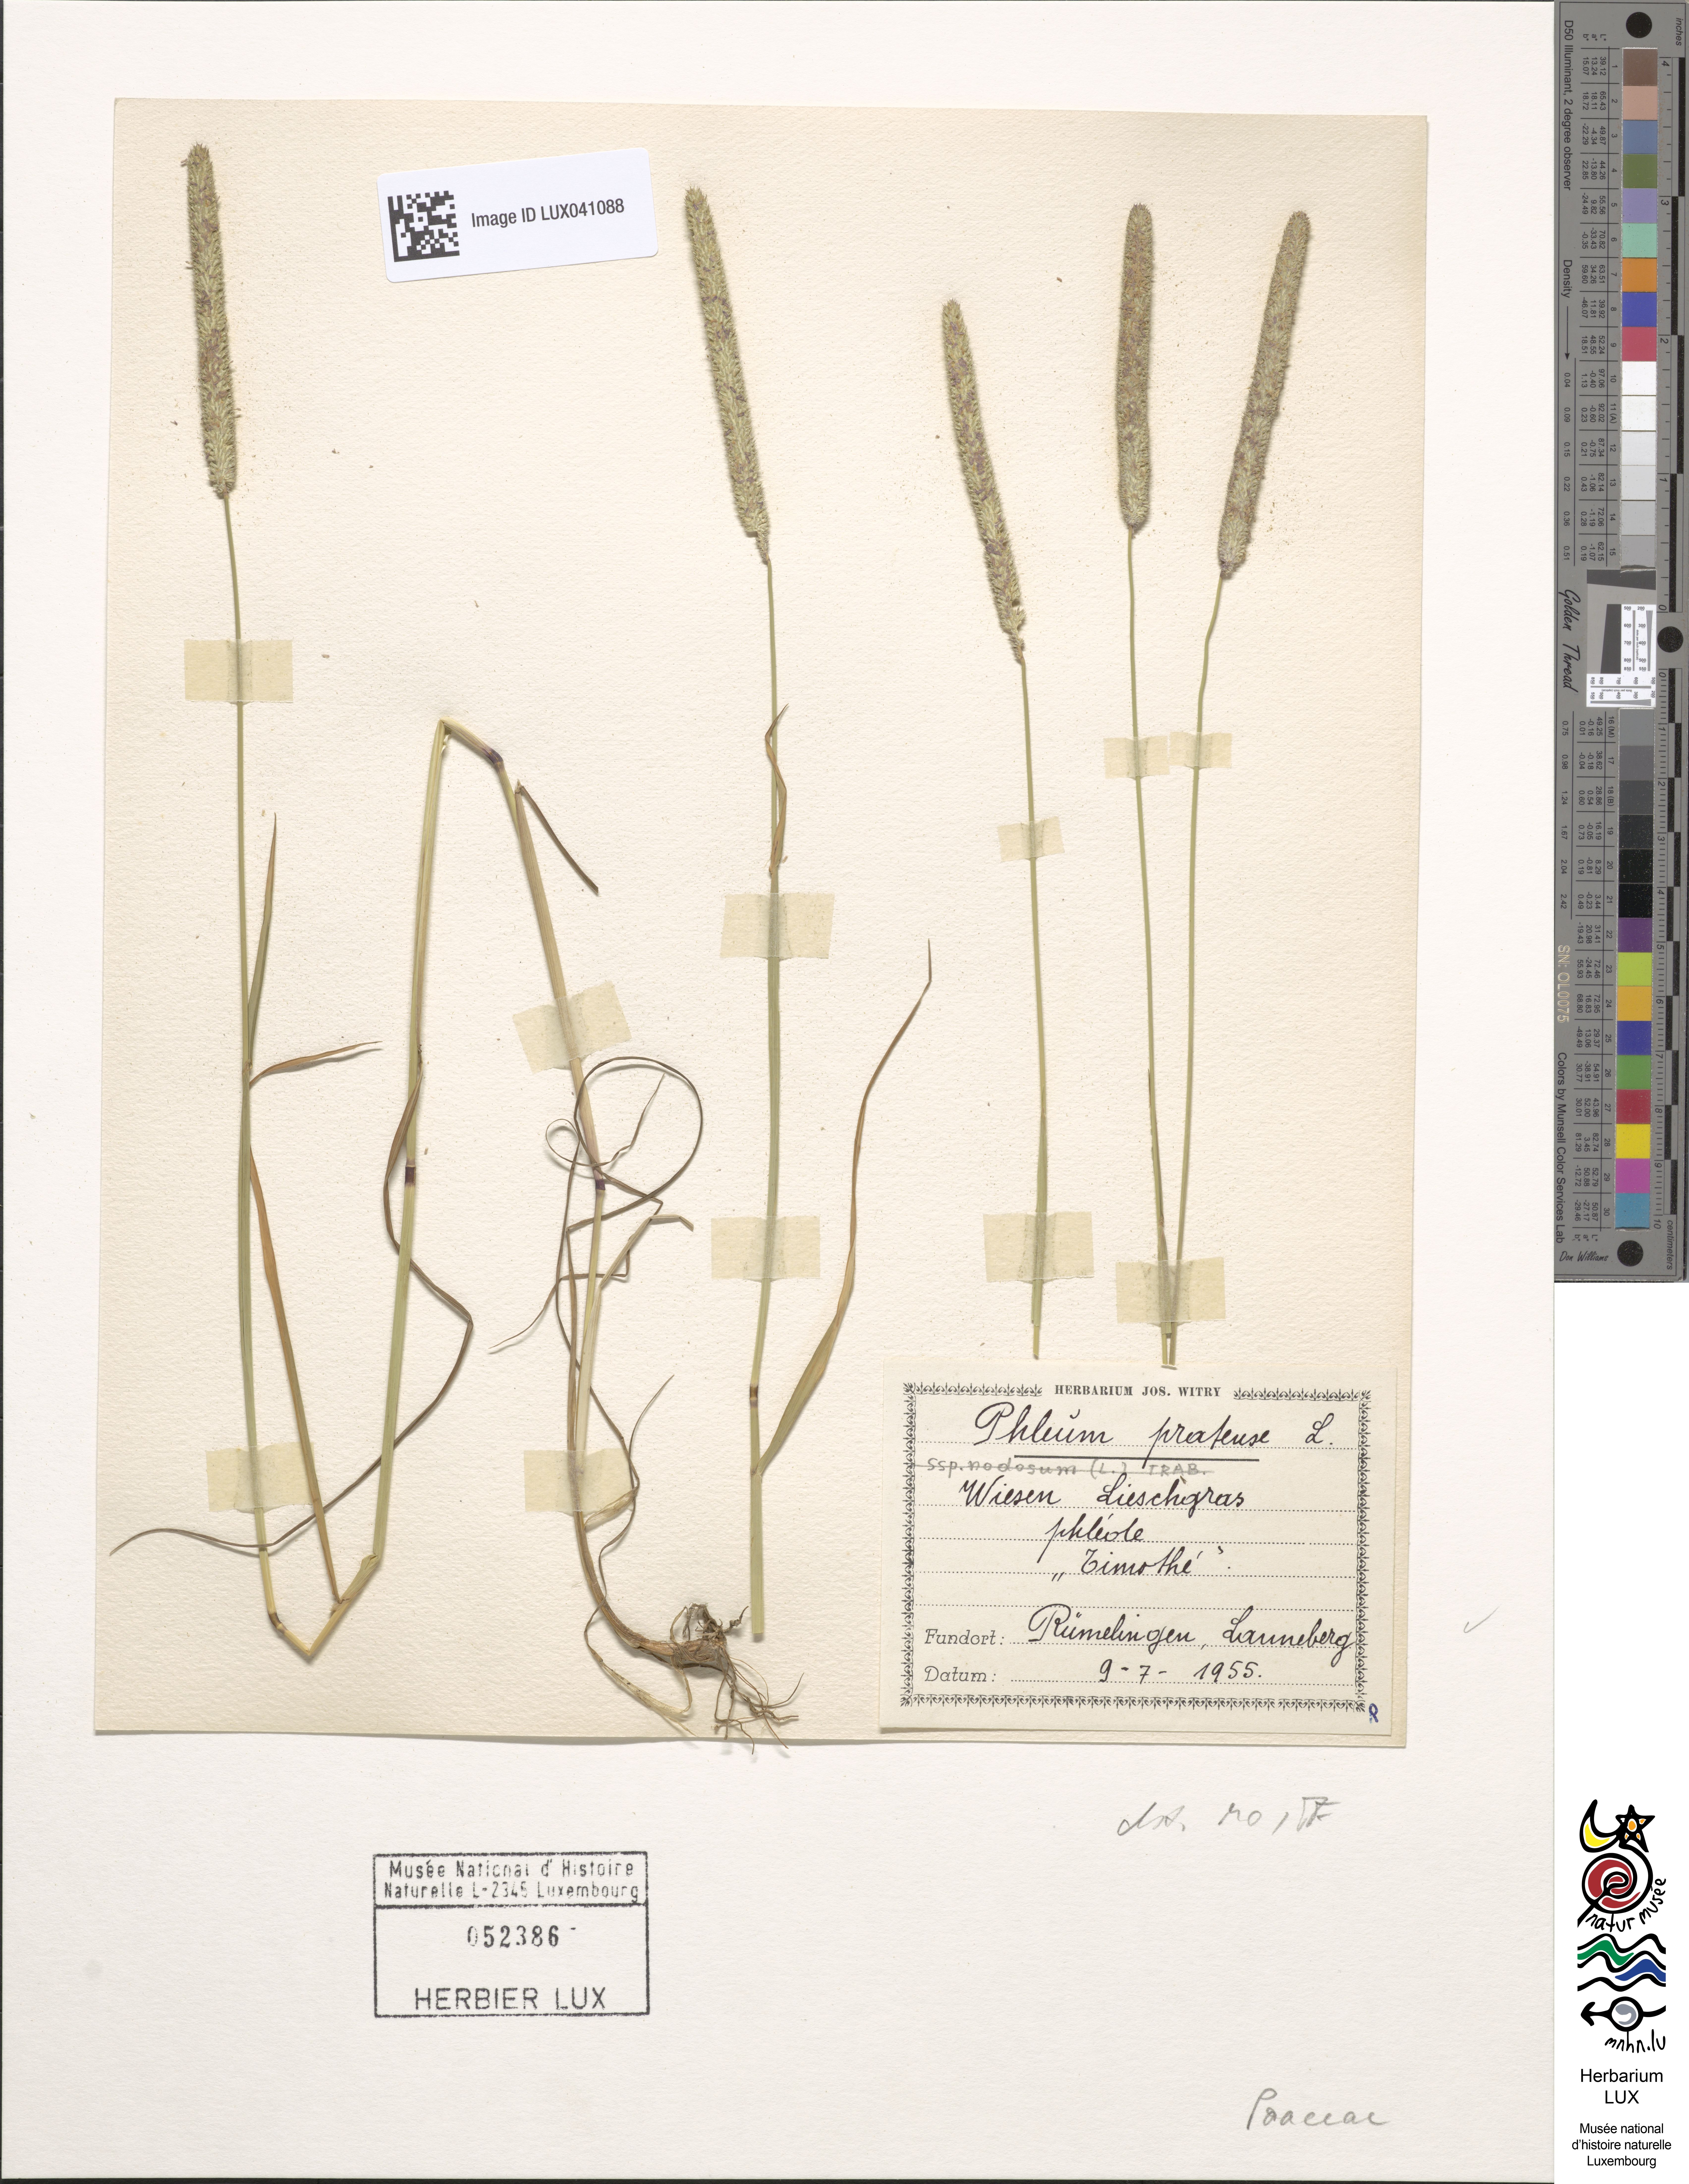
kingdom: Plantae
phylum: Tracheophyta
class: Liliopsida
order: Poales
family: Poaceae
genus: Phleum
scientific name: Phleum pratense
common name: Timothy grass
